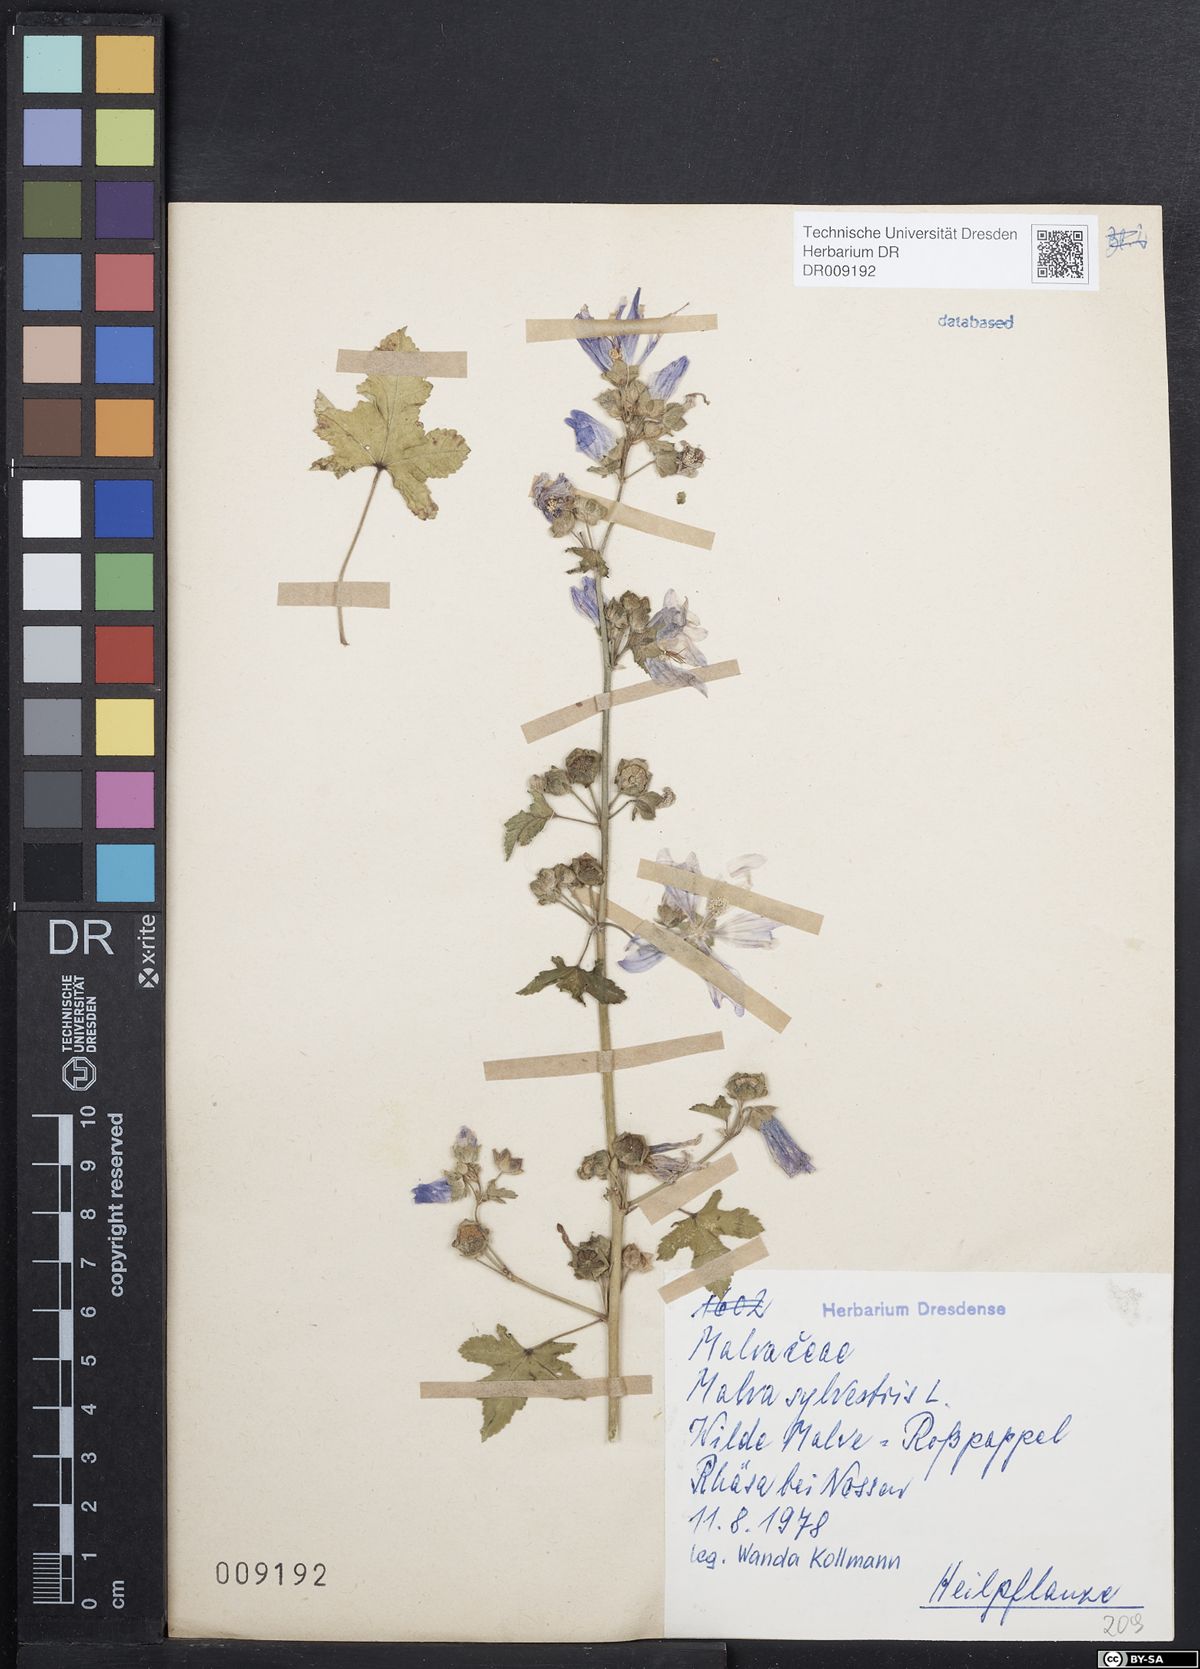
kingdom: Plantae
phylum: Tracheophyta
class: Magnoliopsida
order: Malvales
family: Malvaceae
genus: Malva
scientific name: Malva sylvestris
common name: Common mallow
